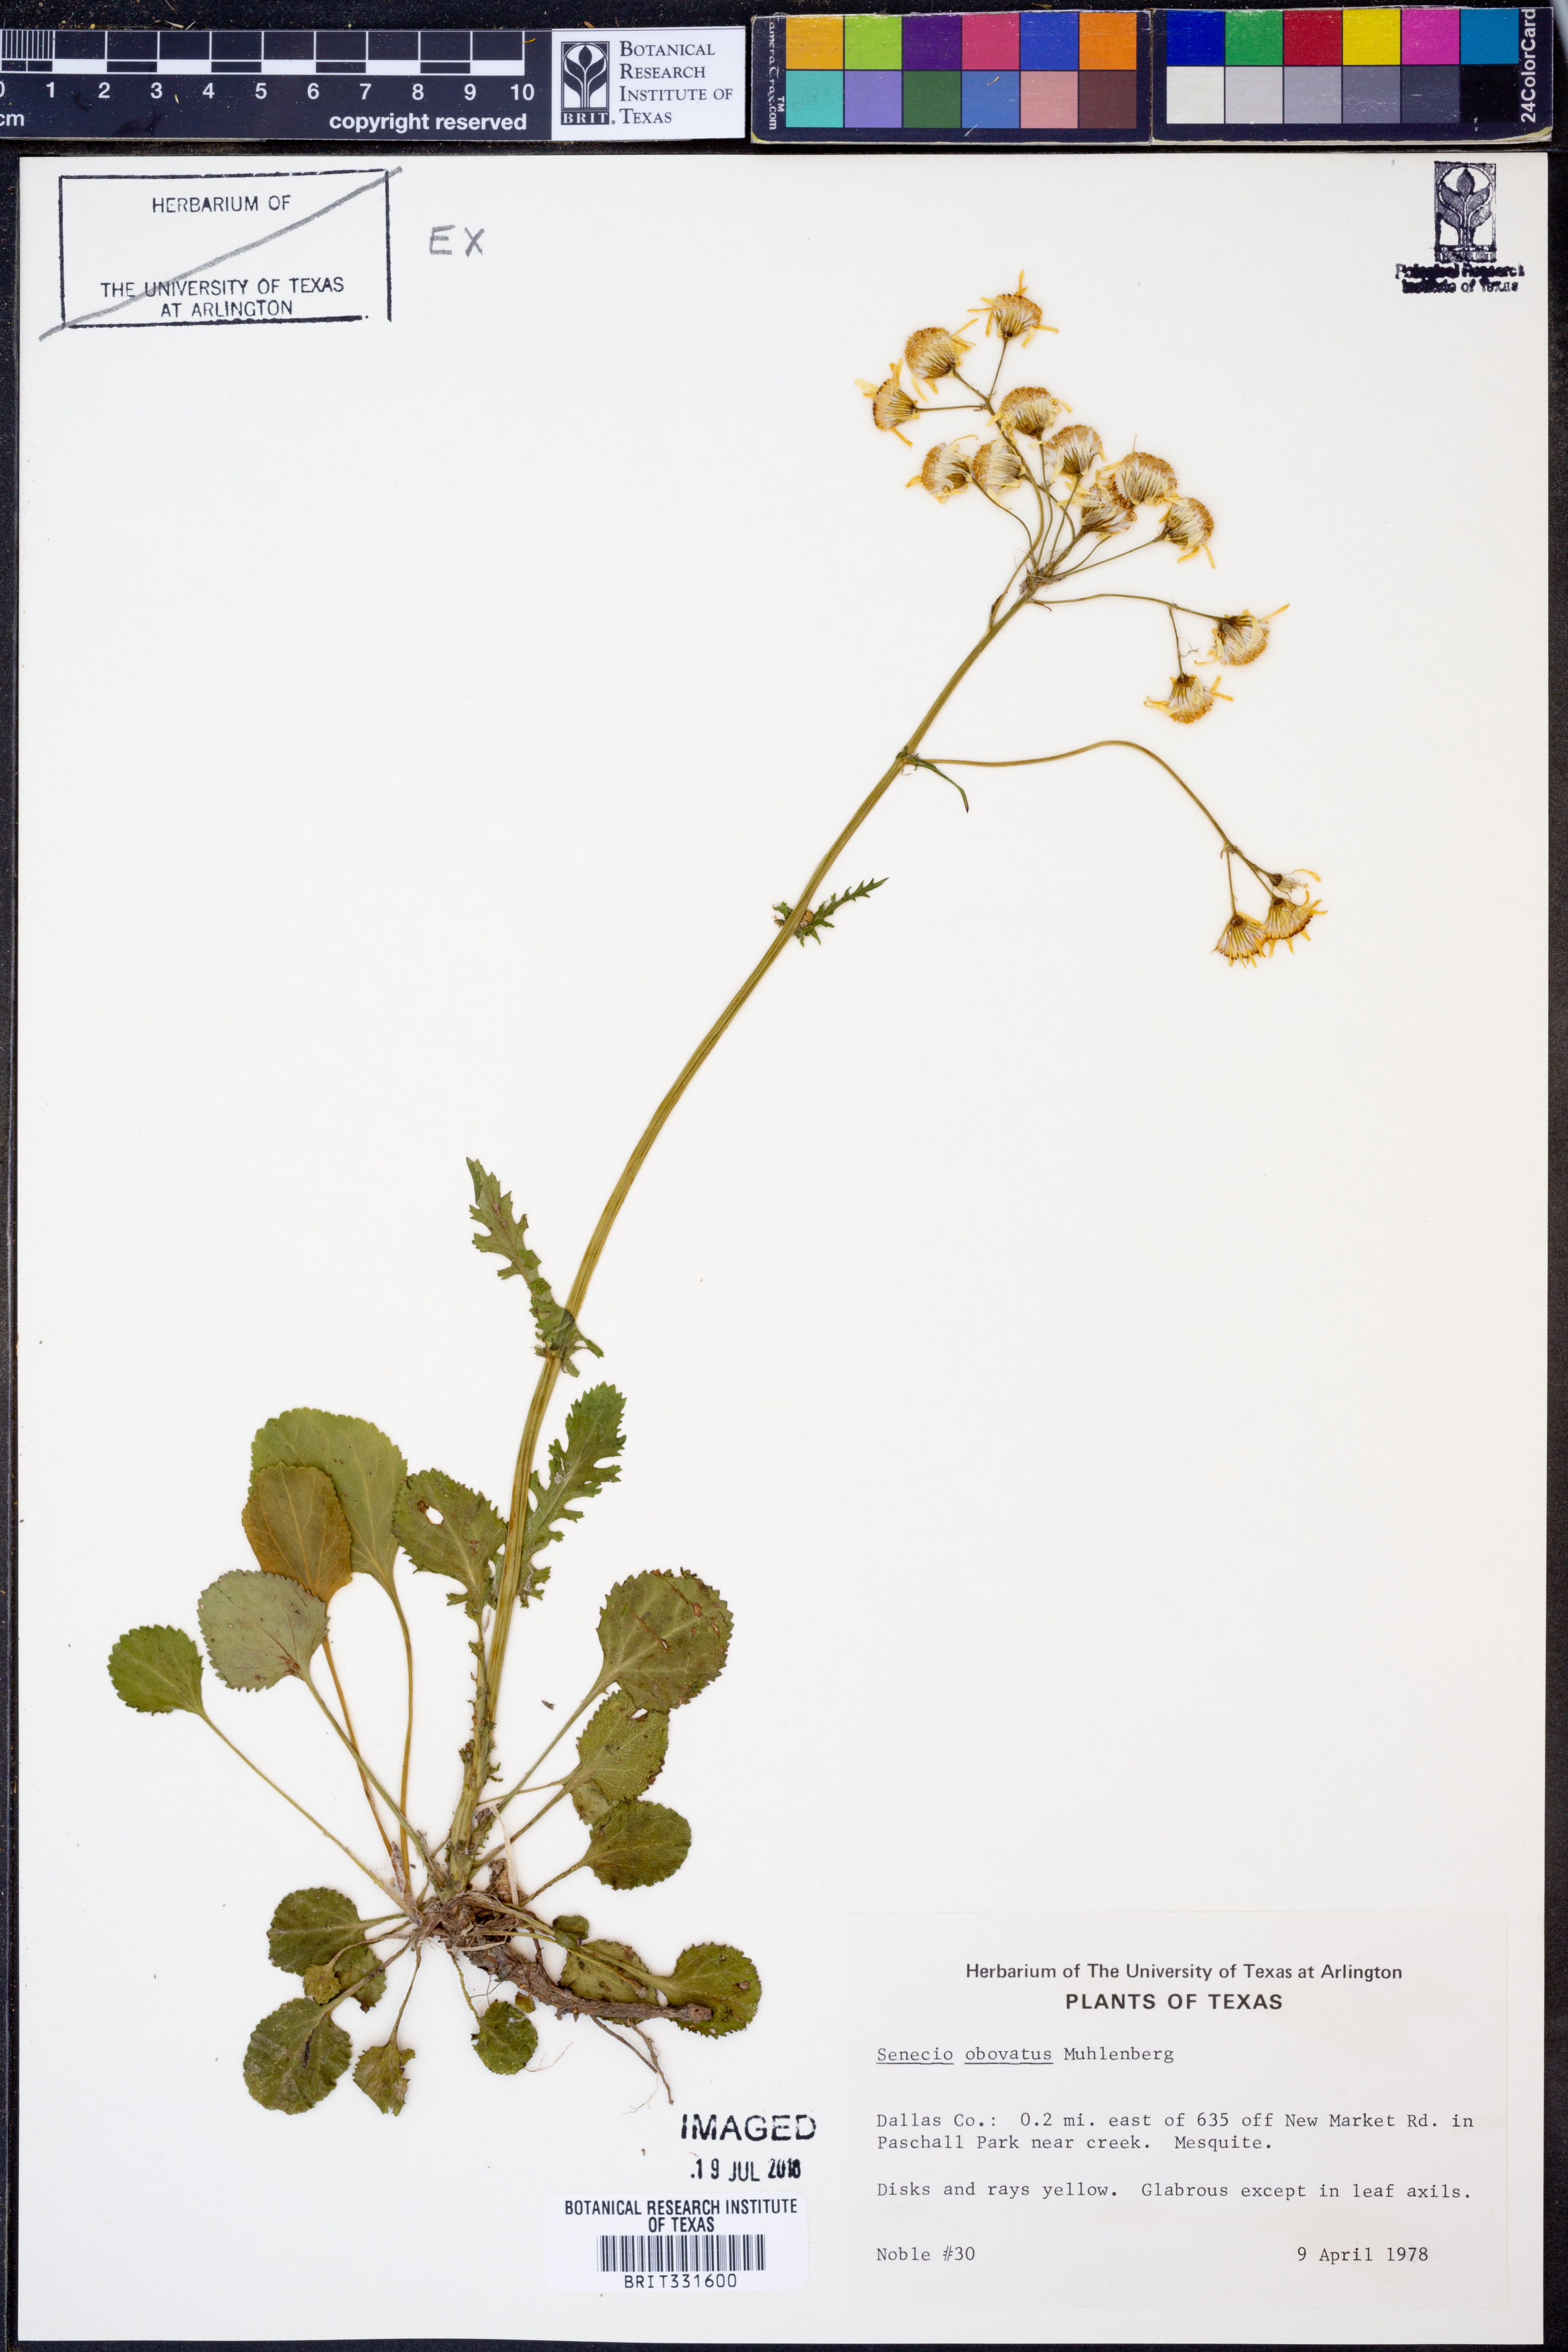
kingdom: Plantae
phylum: Tracheophyta
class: Magnoliopsida
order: Asterales
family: Asteraceae
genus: Senecio
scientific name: Senecio provincialis
